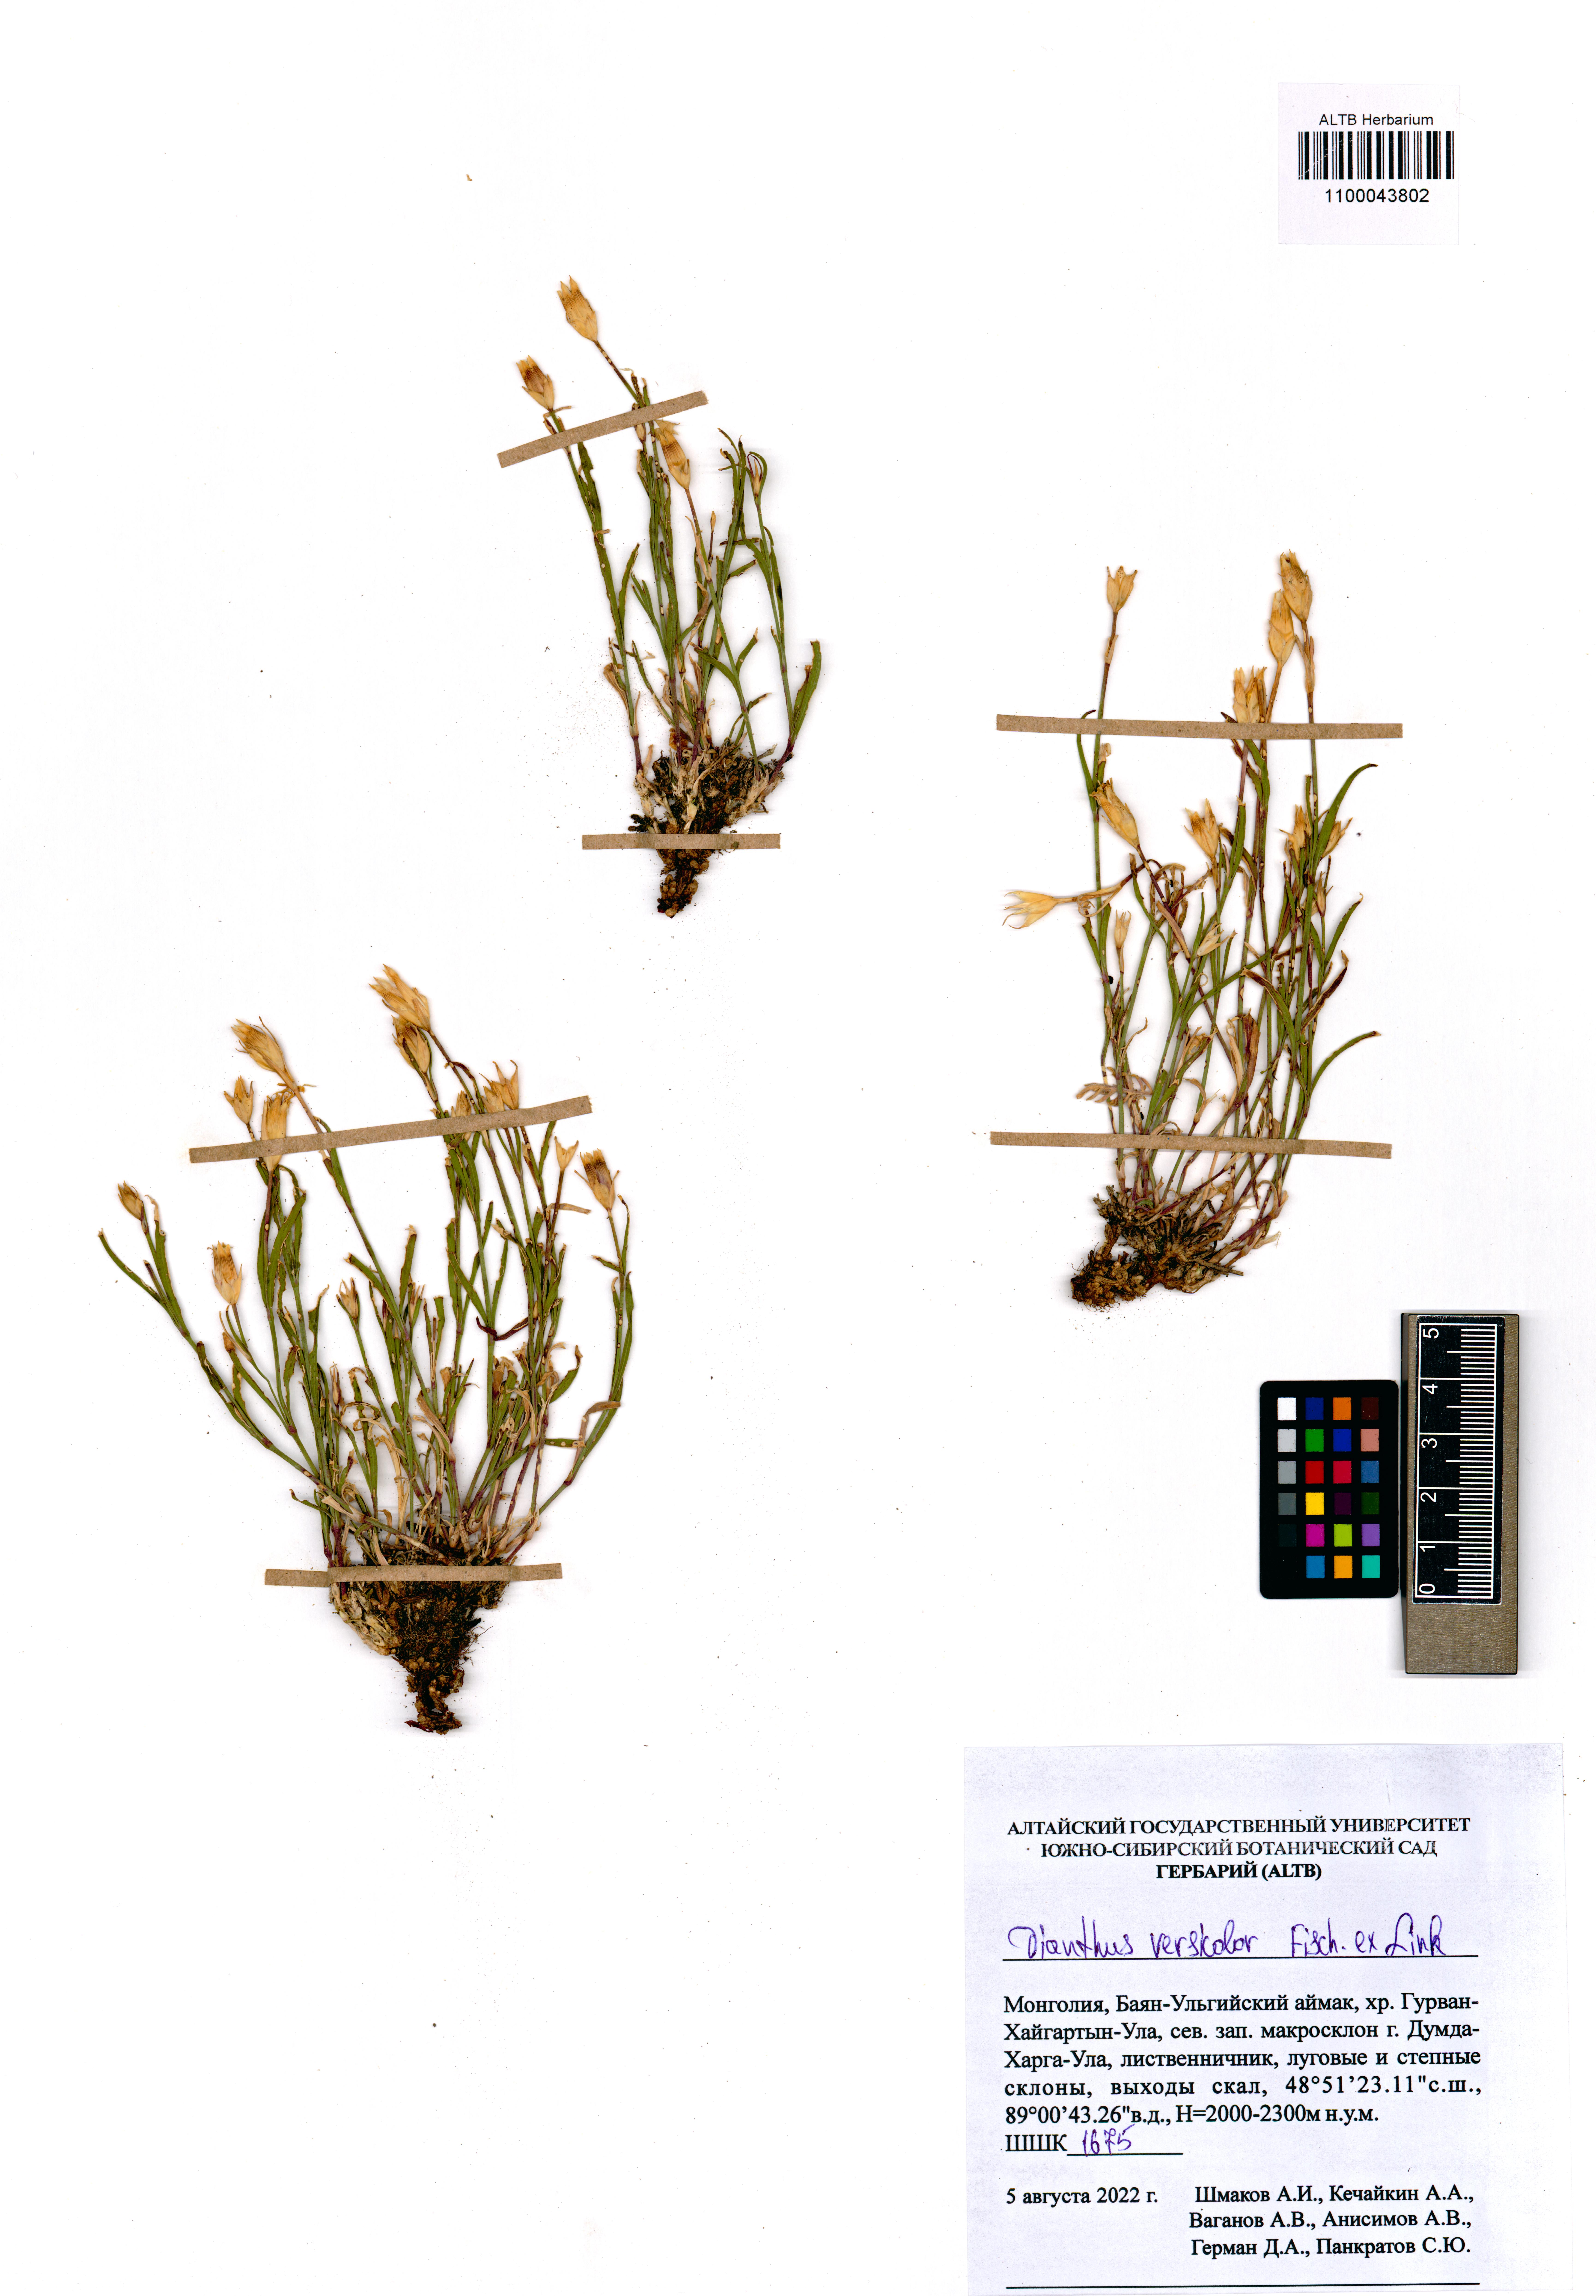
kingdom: Plantae
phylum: Tracheophyta
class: Magnoliopsida
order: Caryophyllales
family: Caryophyllaceae
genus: Dianthus
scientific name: Dianthus chinensis
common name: Rainbow pink
